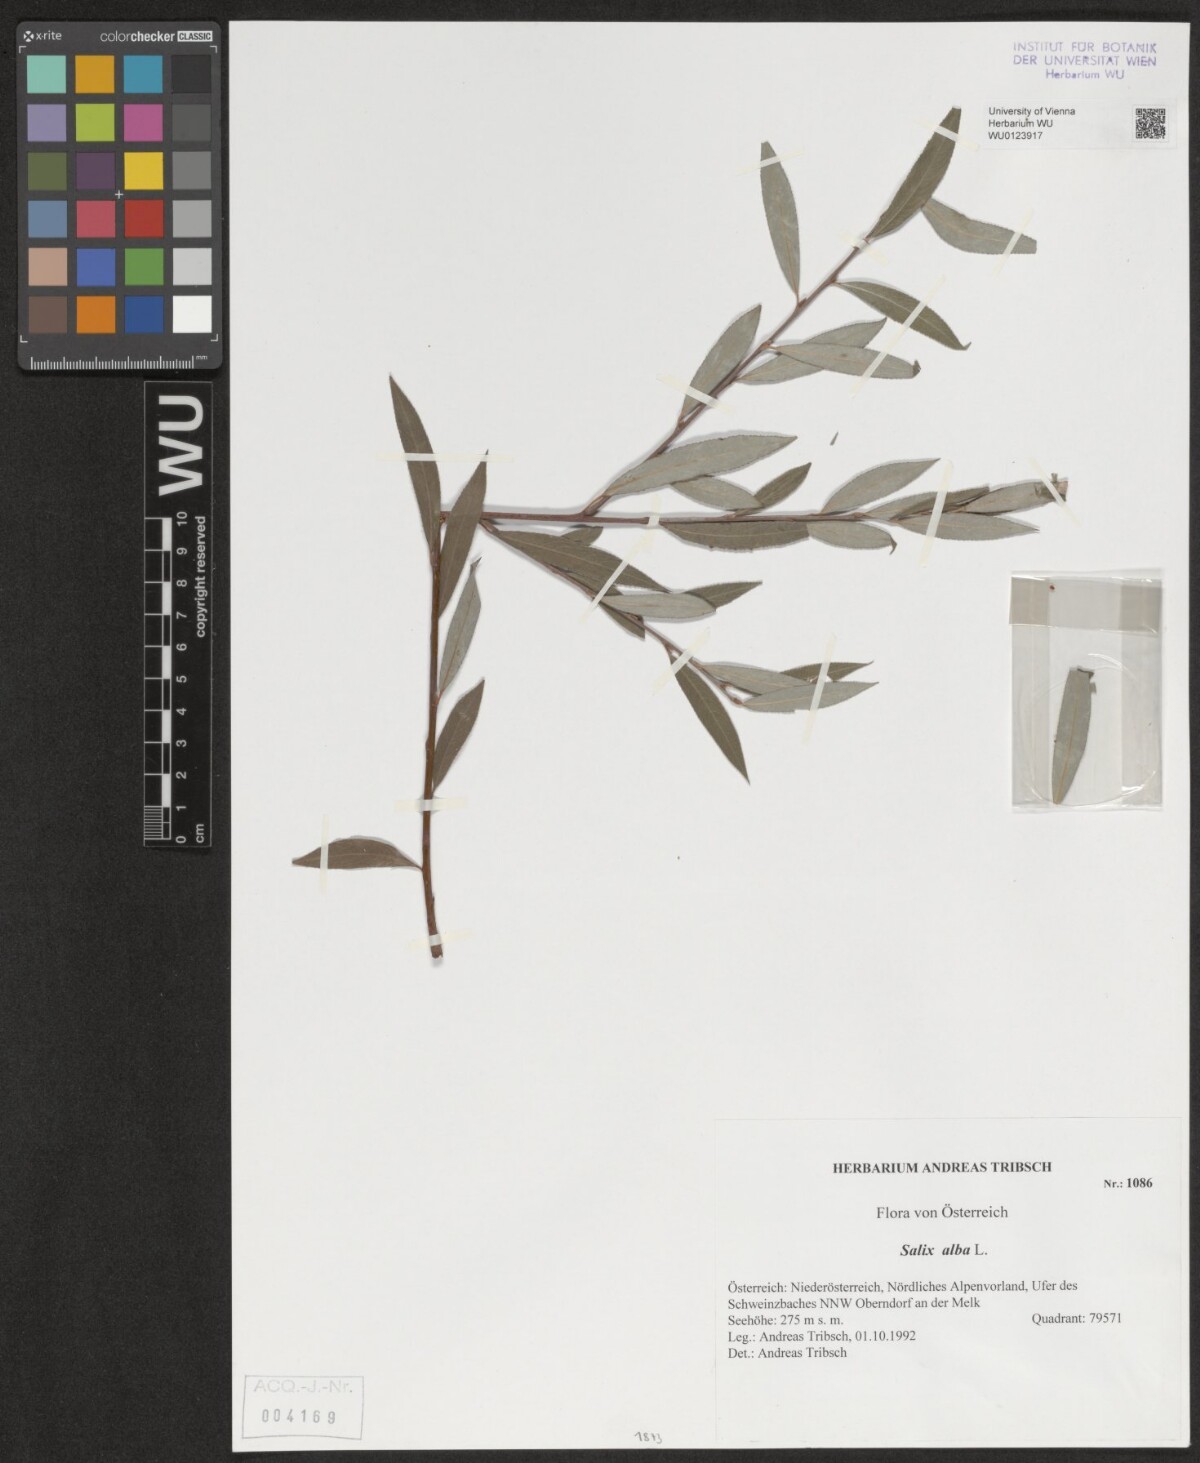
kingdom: Plantae
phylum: Tracheophyta
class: Magnoliopsida
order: Malpighiales
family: Salicaceae
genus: Salix
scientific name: Salix alba
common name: White willow
